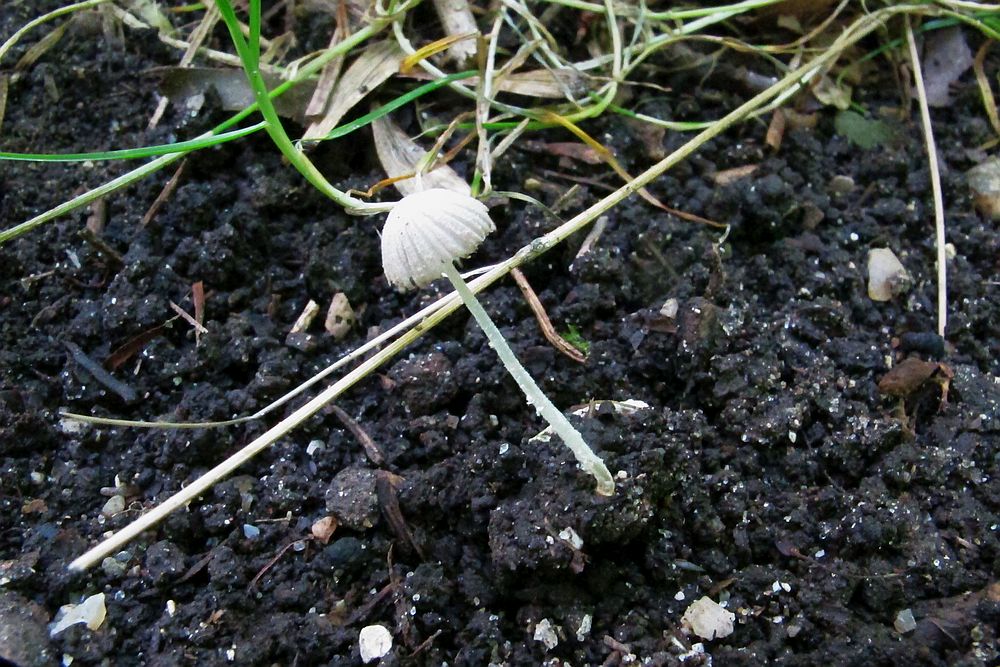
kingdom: Fungi
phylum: Basidiomycota
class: Agaricomycetes
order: Agaricales
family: Psathyrellaceae
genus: Coprinopsis
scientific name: Coprinopsis candidata
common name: hvidklædt blækhat
